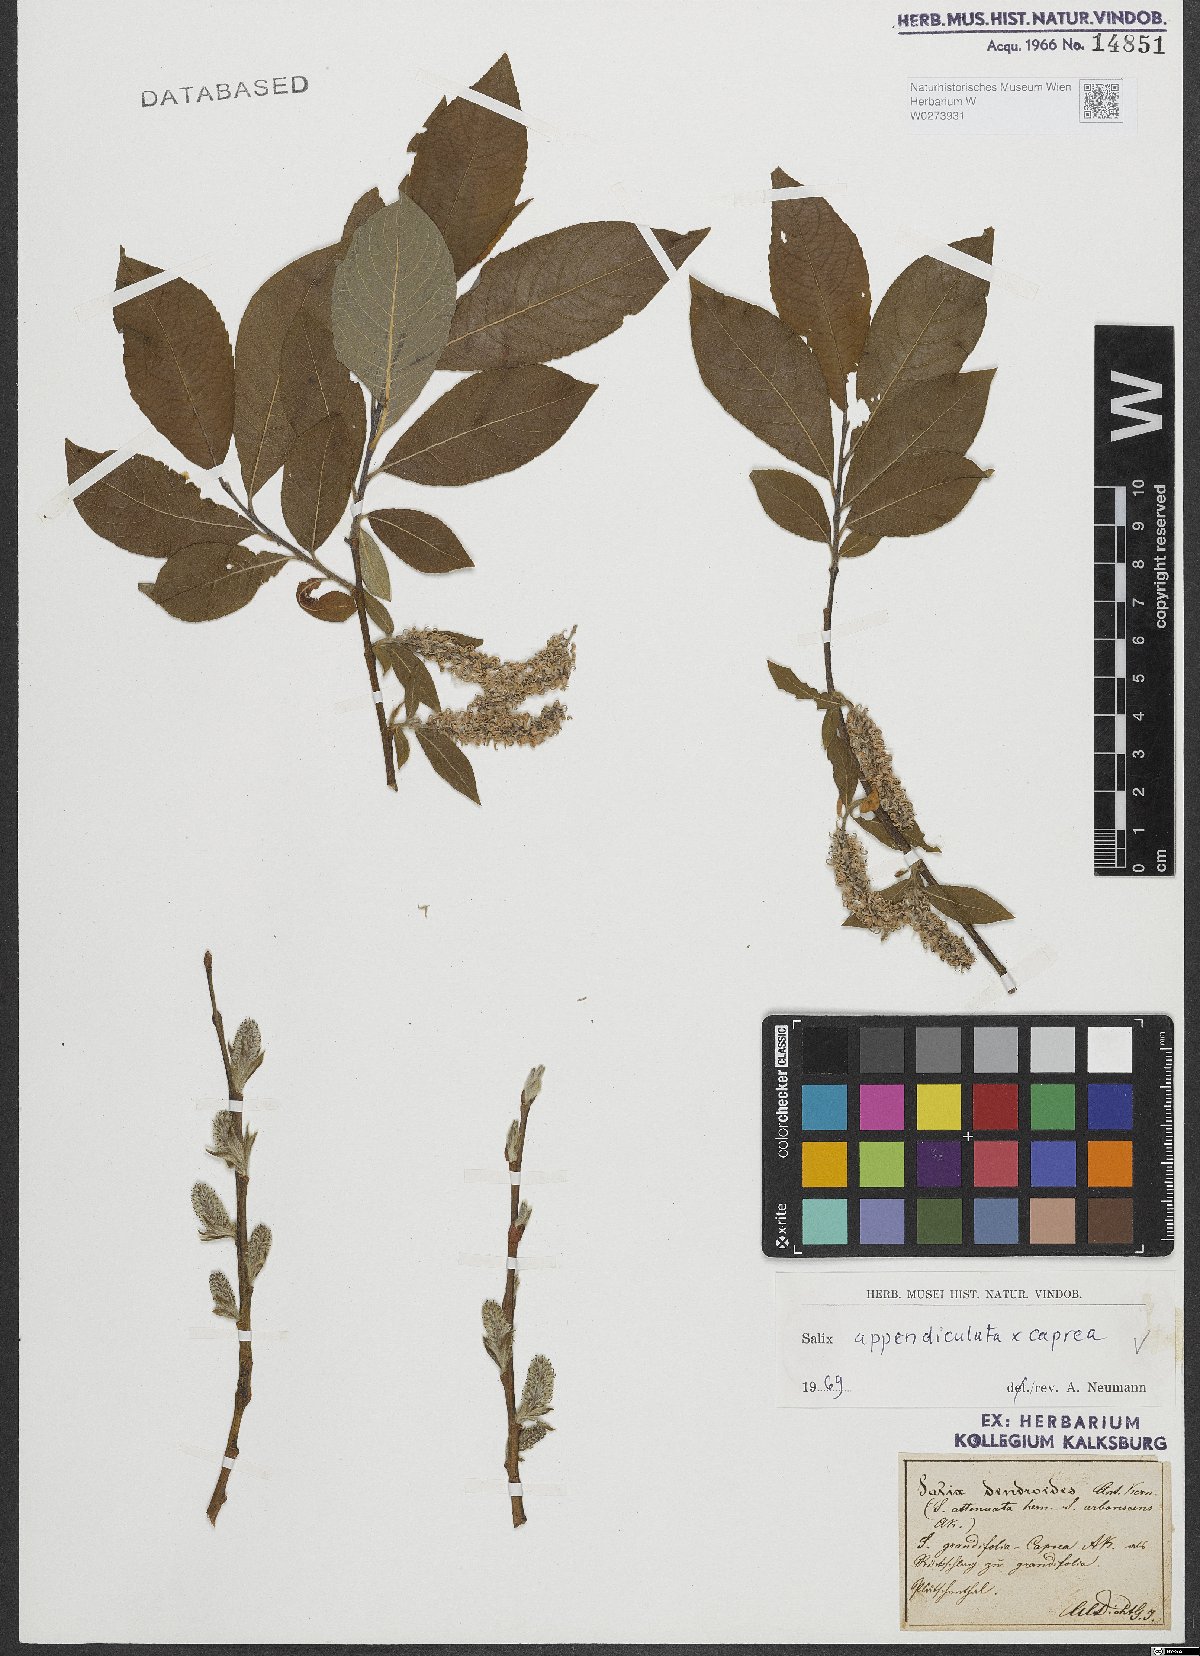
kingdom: Plantae
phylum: Tracheophyta
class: Magnoliopsida
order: Malpighiales
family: Salicaceae
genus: Salix
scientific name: Salix appendiculata
